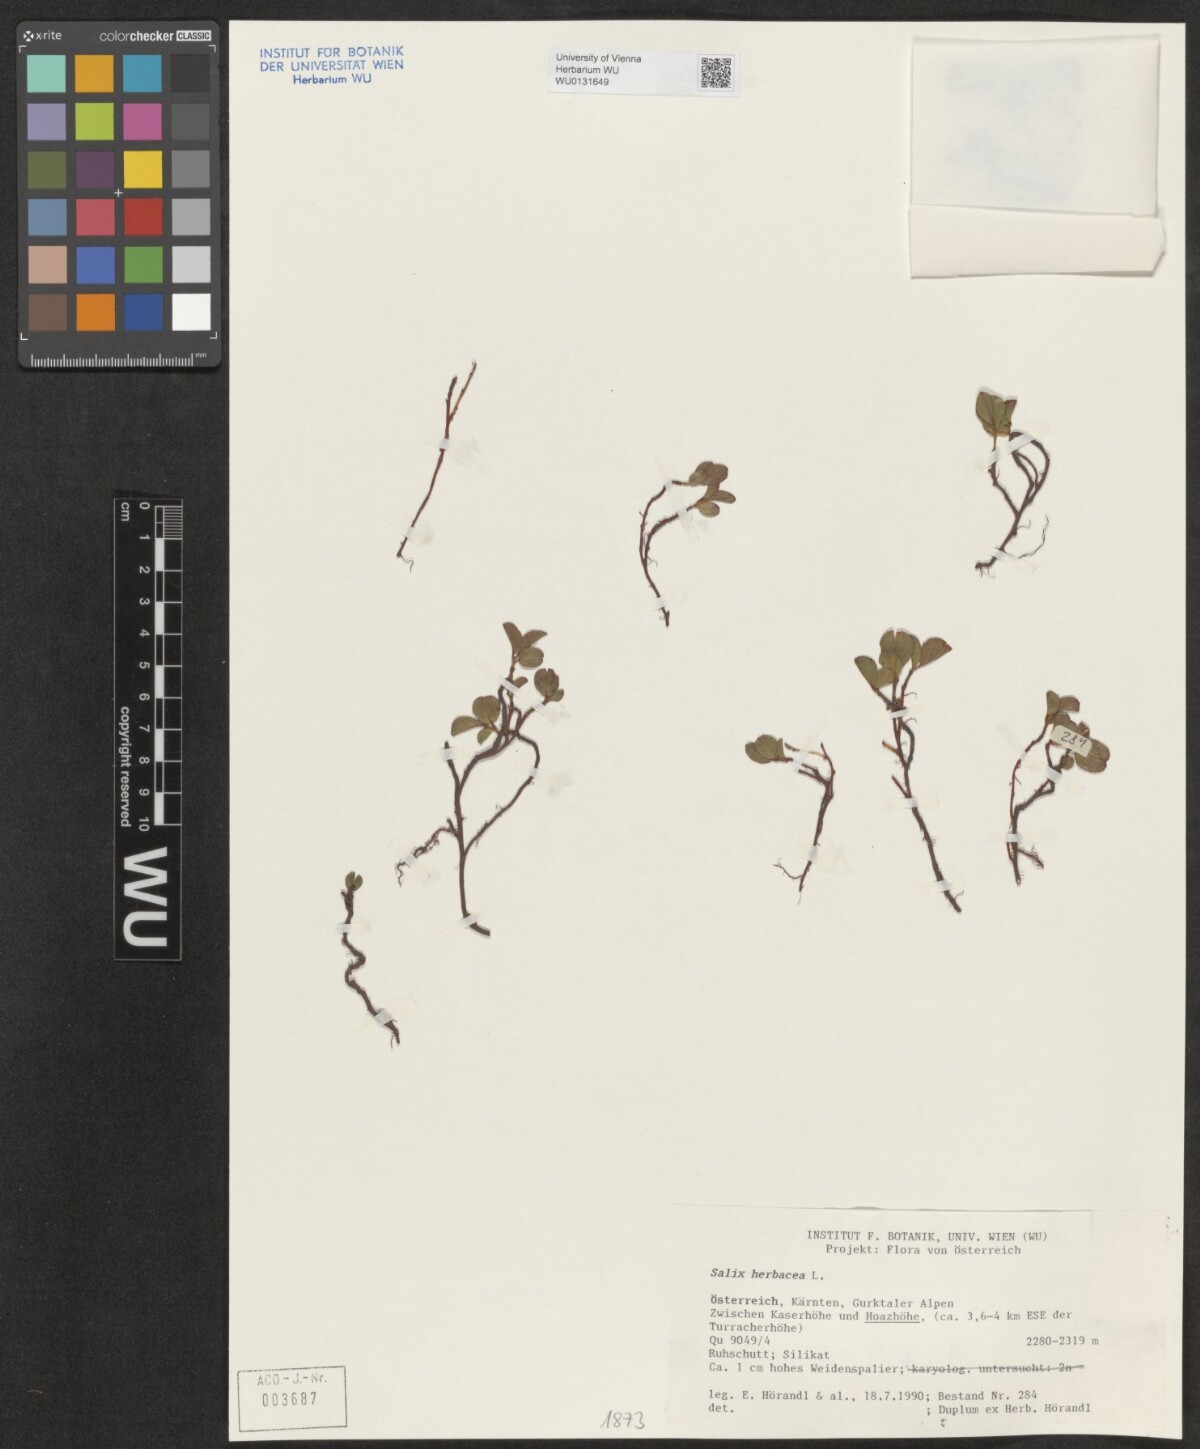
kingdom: Plantae
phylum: Tracheophyta
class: Magnoliopsida
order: Malpighiales
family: Salicaceae
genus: Salix
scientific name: Salix herbacea
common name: Dwarf willow
